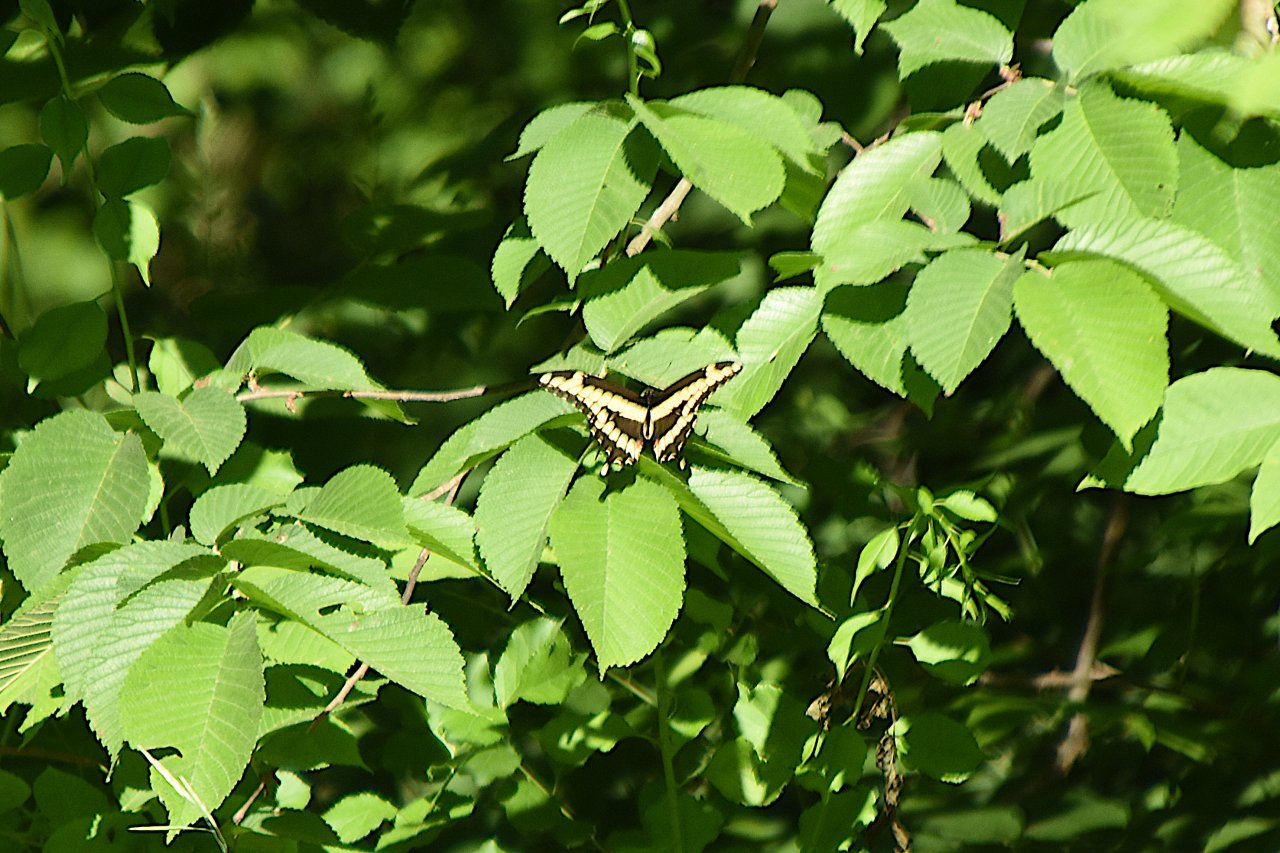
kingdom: Animalia
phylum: Arthropoda
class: Insecta
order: Lepidoptera
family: Papilionidae
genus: Papilio
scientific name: Papilio cresphontes
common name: Eastern Giant Swallowtail
